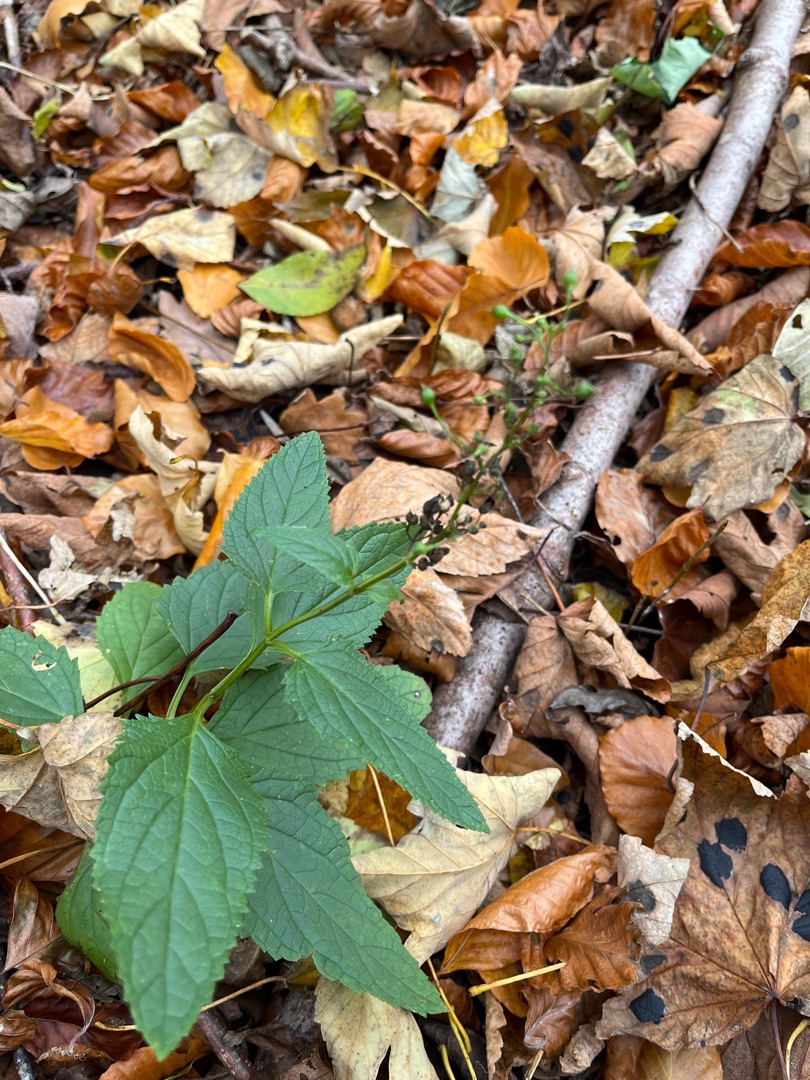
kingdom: Plantae
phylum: Tracheophyta
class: Magnoliopsida
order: Lamiales
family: Scrophulariaceae
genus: Scrophularia
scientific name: Scrophularia nodosa
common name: Knoldet brunrod
